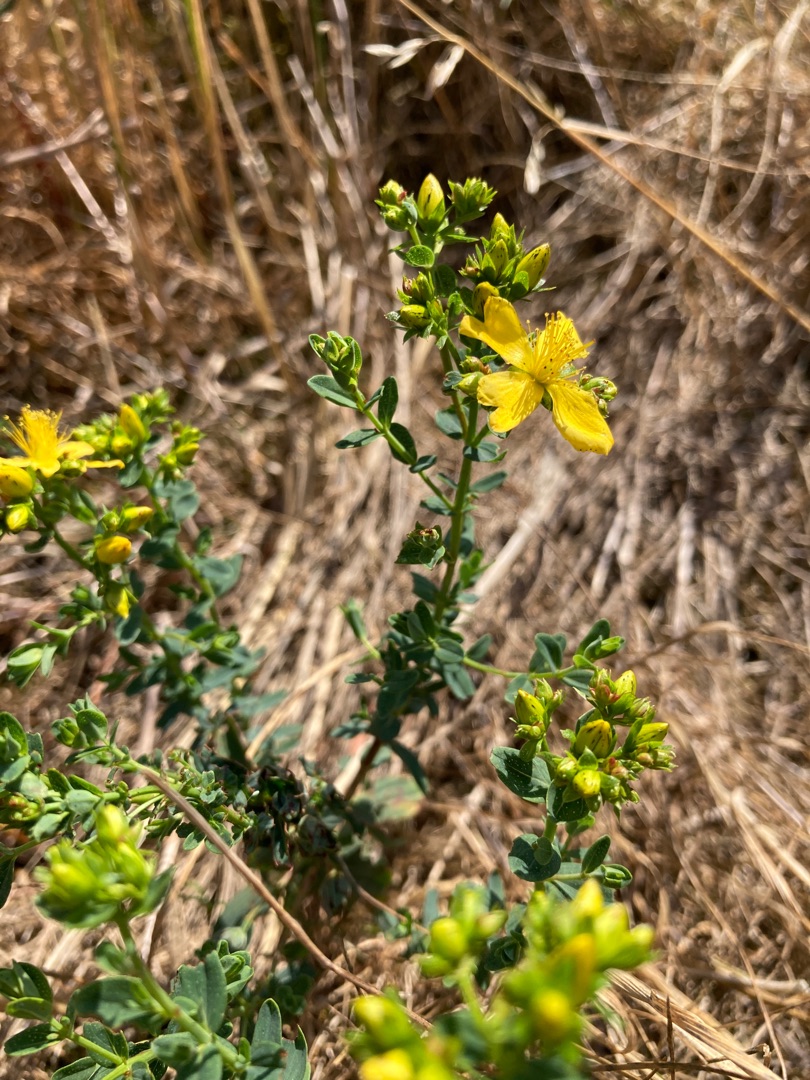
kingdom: Plantae
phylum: Tracheophyta
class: Magnoliopsida
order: Malpighiales
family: Hypericaceae
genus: Hypericum
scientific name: Hypericum perforatum
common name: Prikbladet perikon
